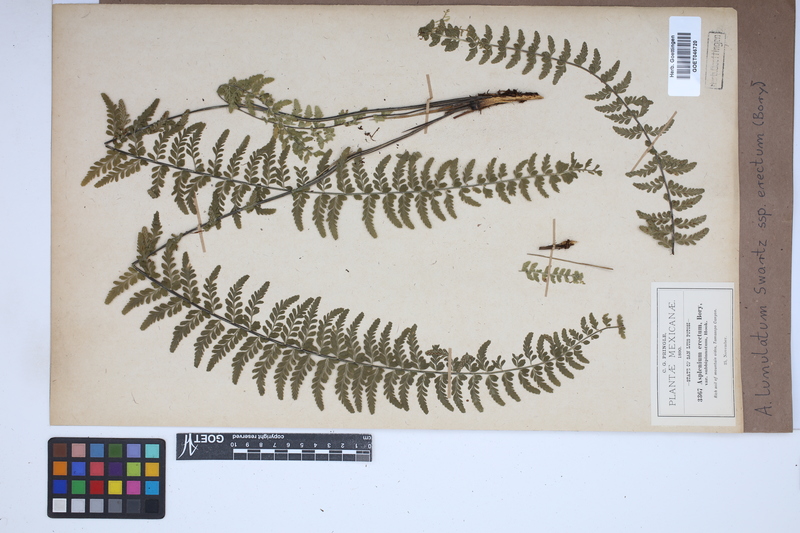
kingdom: Plantae
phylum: Tracheophyta
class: Polypodiopsida
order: Polypodiales
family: Aspleniaceae
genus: Asplenium
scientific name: Asplenium erectum
